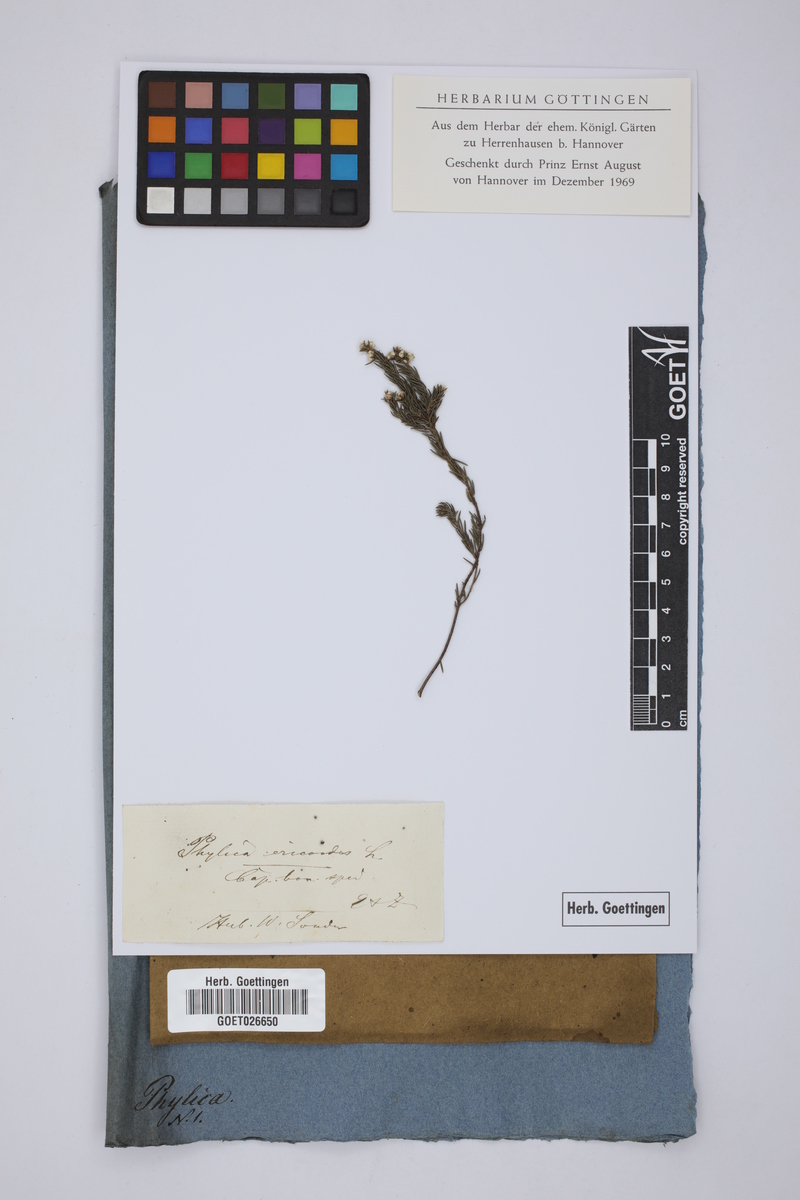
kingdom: Plantae
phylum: Tracheophyta
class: Magnoliopsida
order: Rosales
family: Rhamnaceae
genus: Phylica
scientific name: Phylica ericoides
